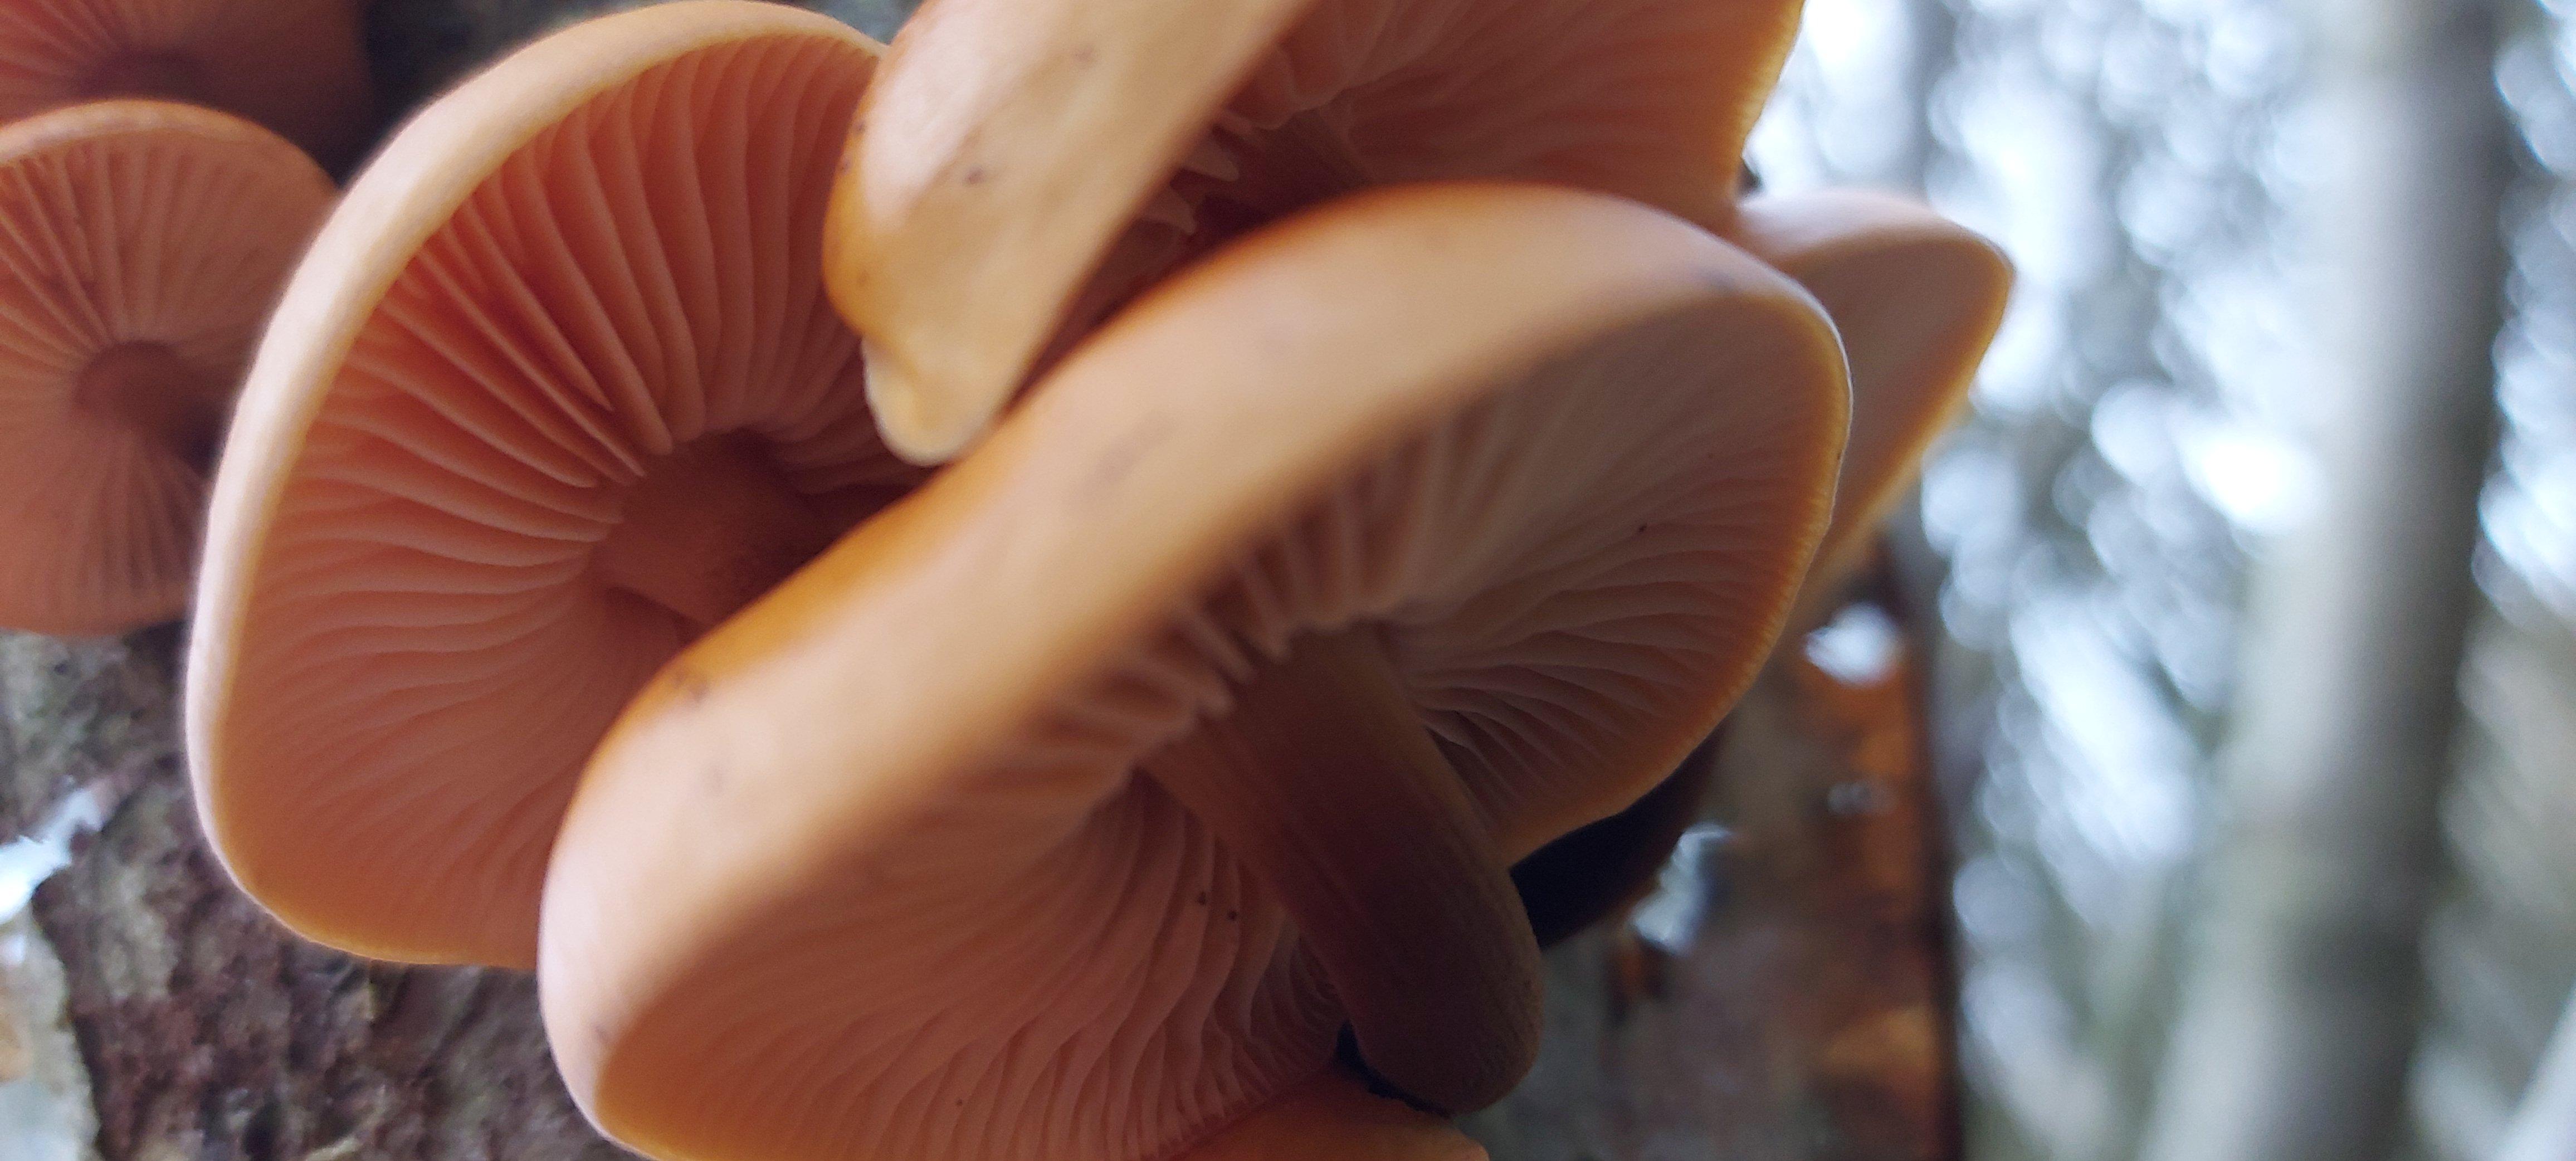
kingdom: Fungi
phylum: Basidiomycota
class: Agaricomycetes
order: Agaricales
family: Physalacriaceae
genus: Flammulina
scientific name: Flammulina
